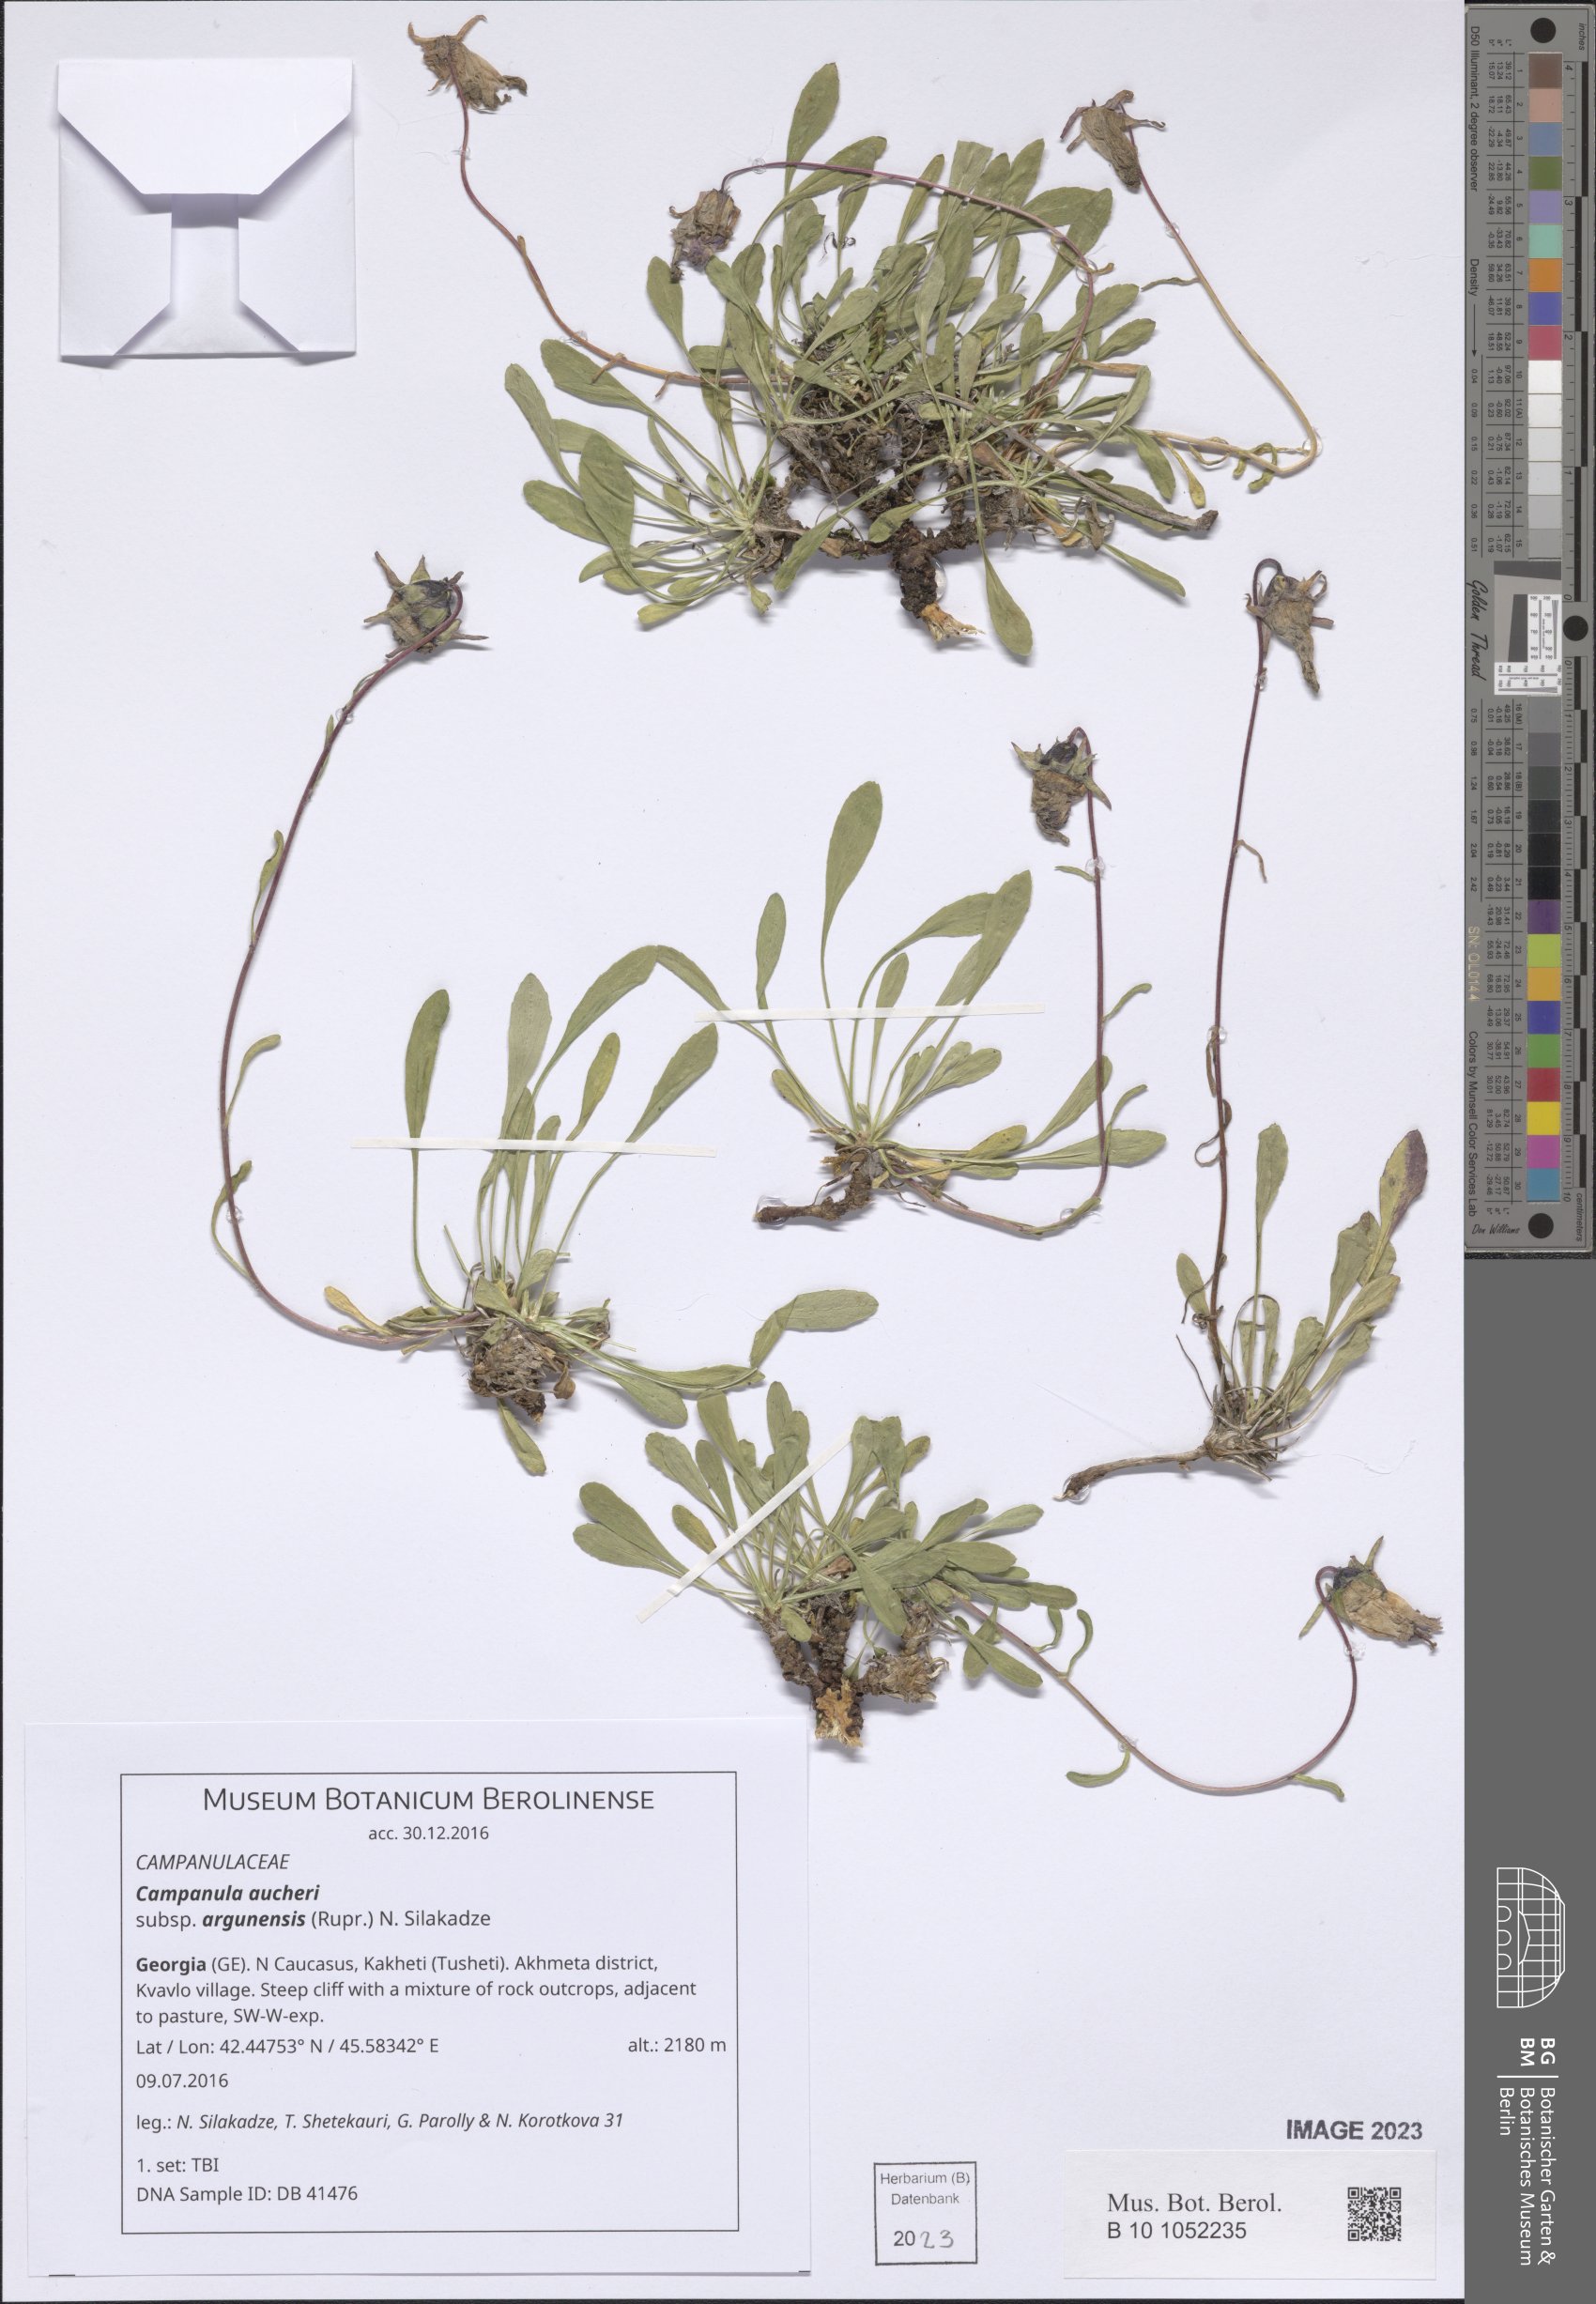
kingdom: Plantae
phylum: Tracheophyta
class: Magnoliopsida
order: Asterales
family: Campanulaceae
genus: Campanula
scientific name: Campanula saxifraga
